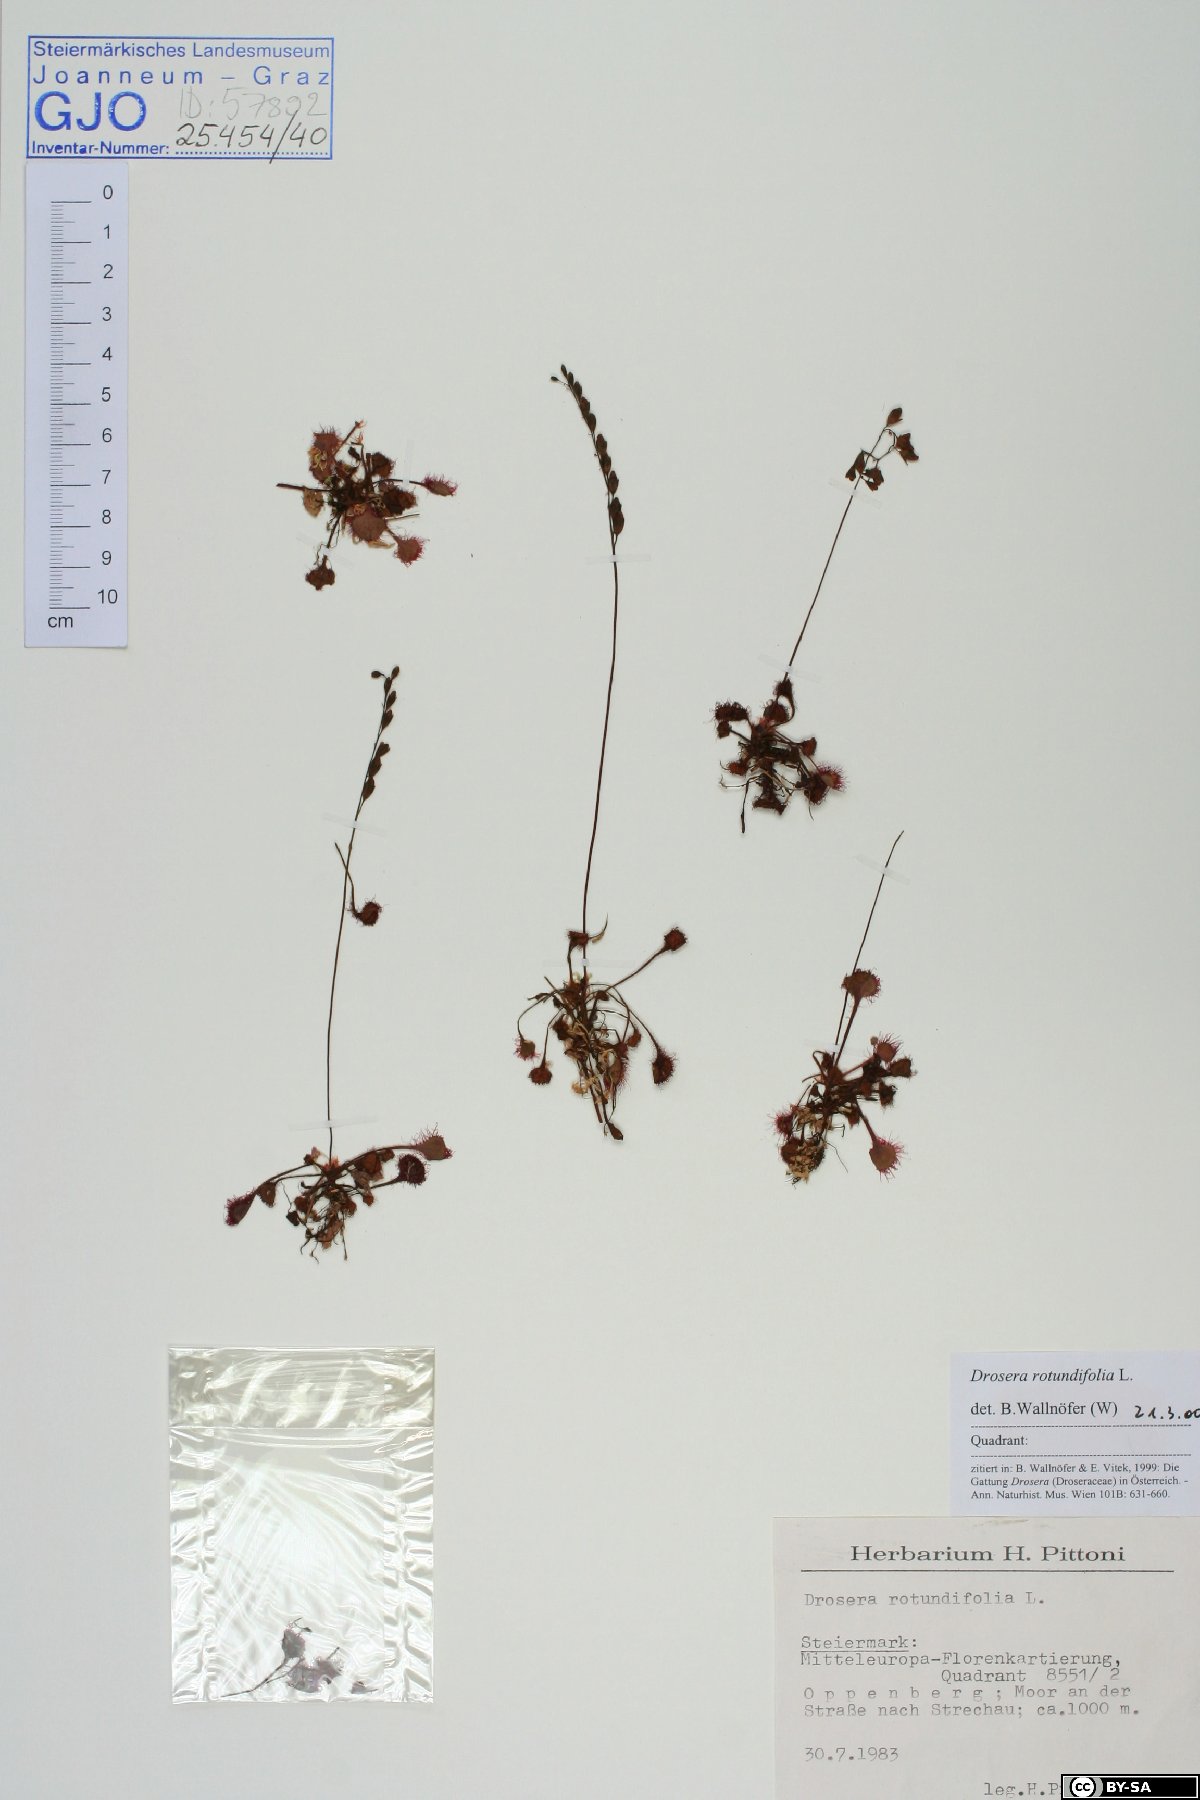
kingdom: Plantae
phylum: Tracheophyta
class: Magnoliopsida
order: Caryophyllales
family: Droseraceae
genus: Drosera
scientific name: Drosera rotundifolia
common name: Round-leaved sundew
